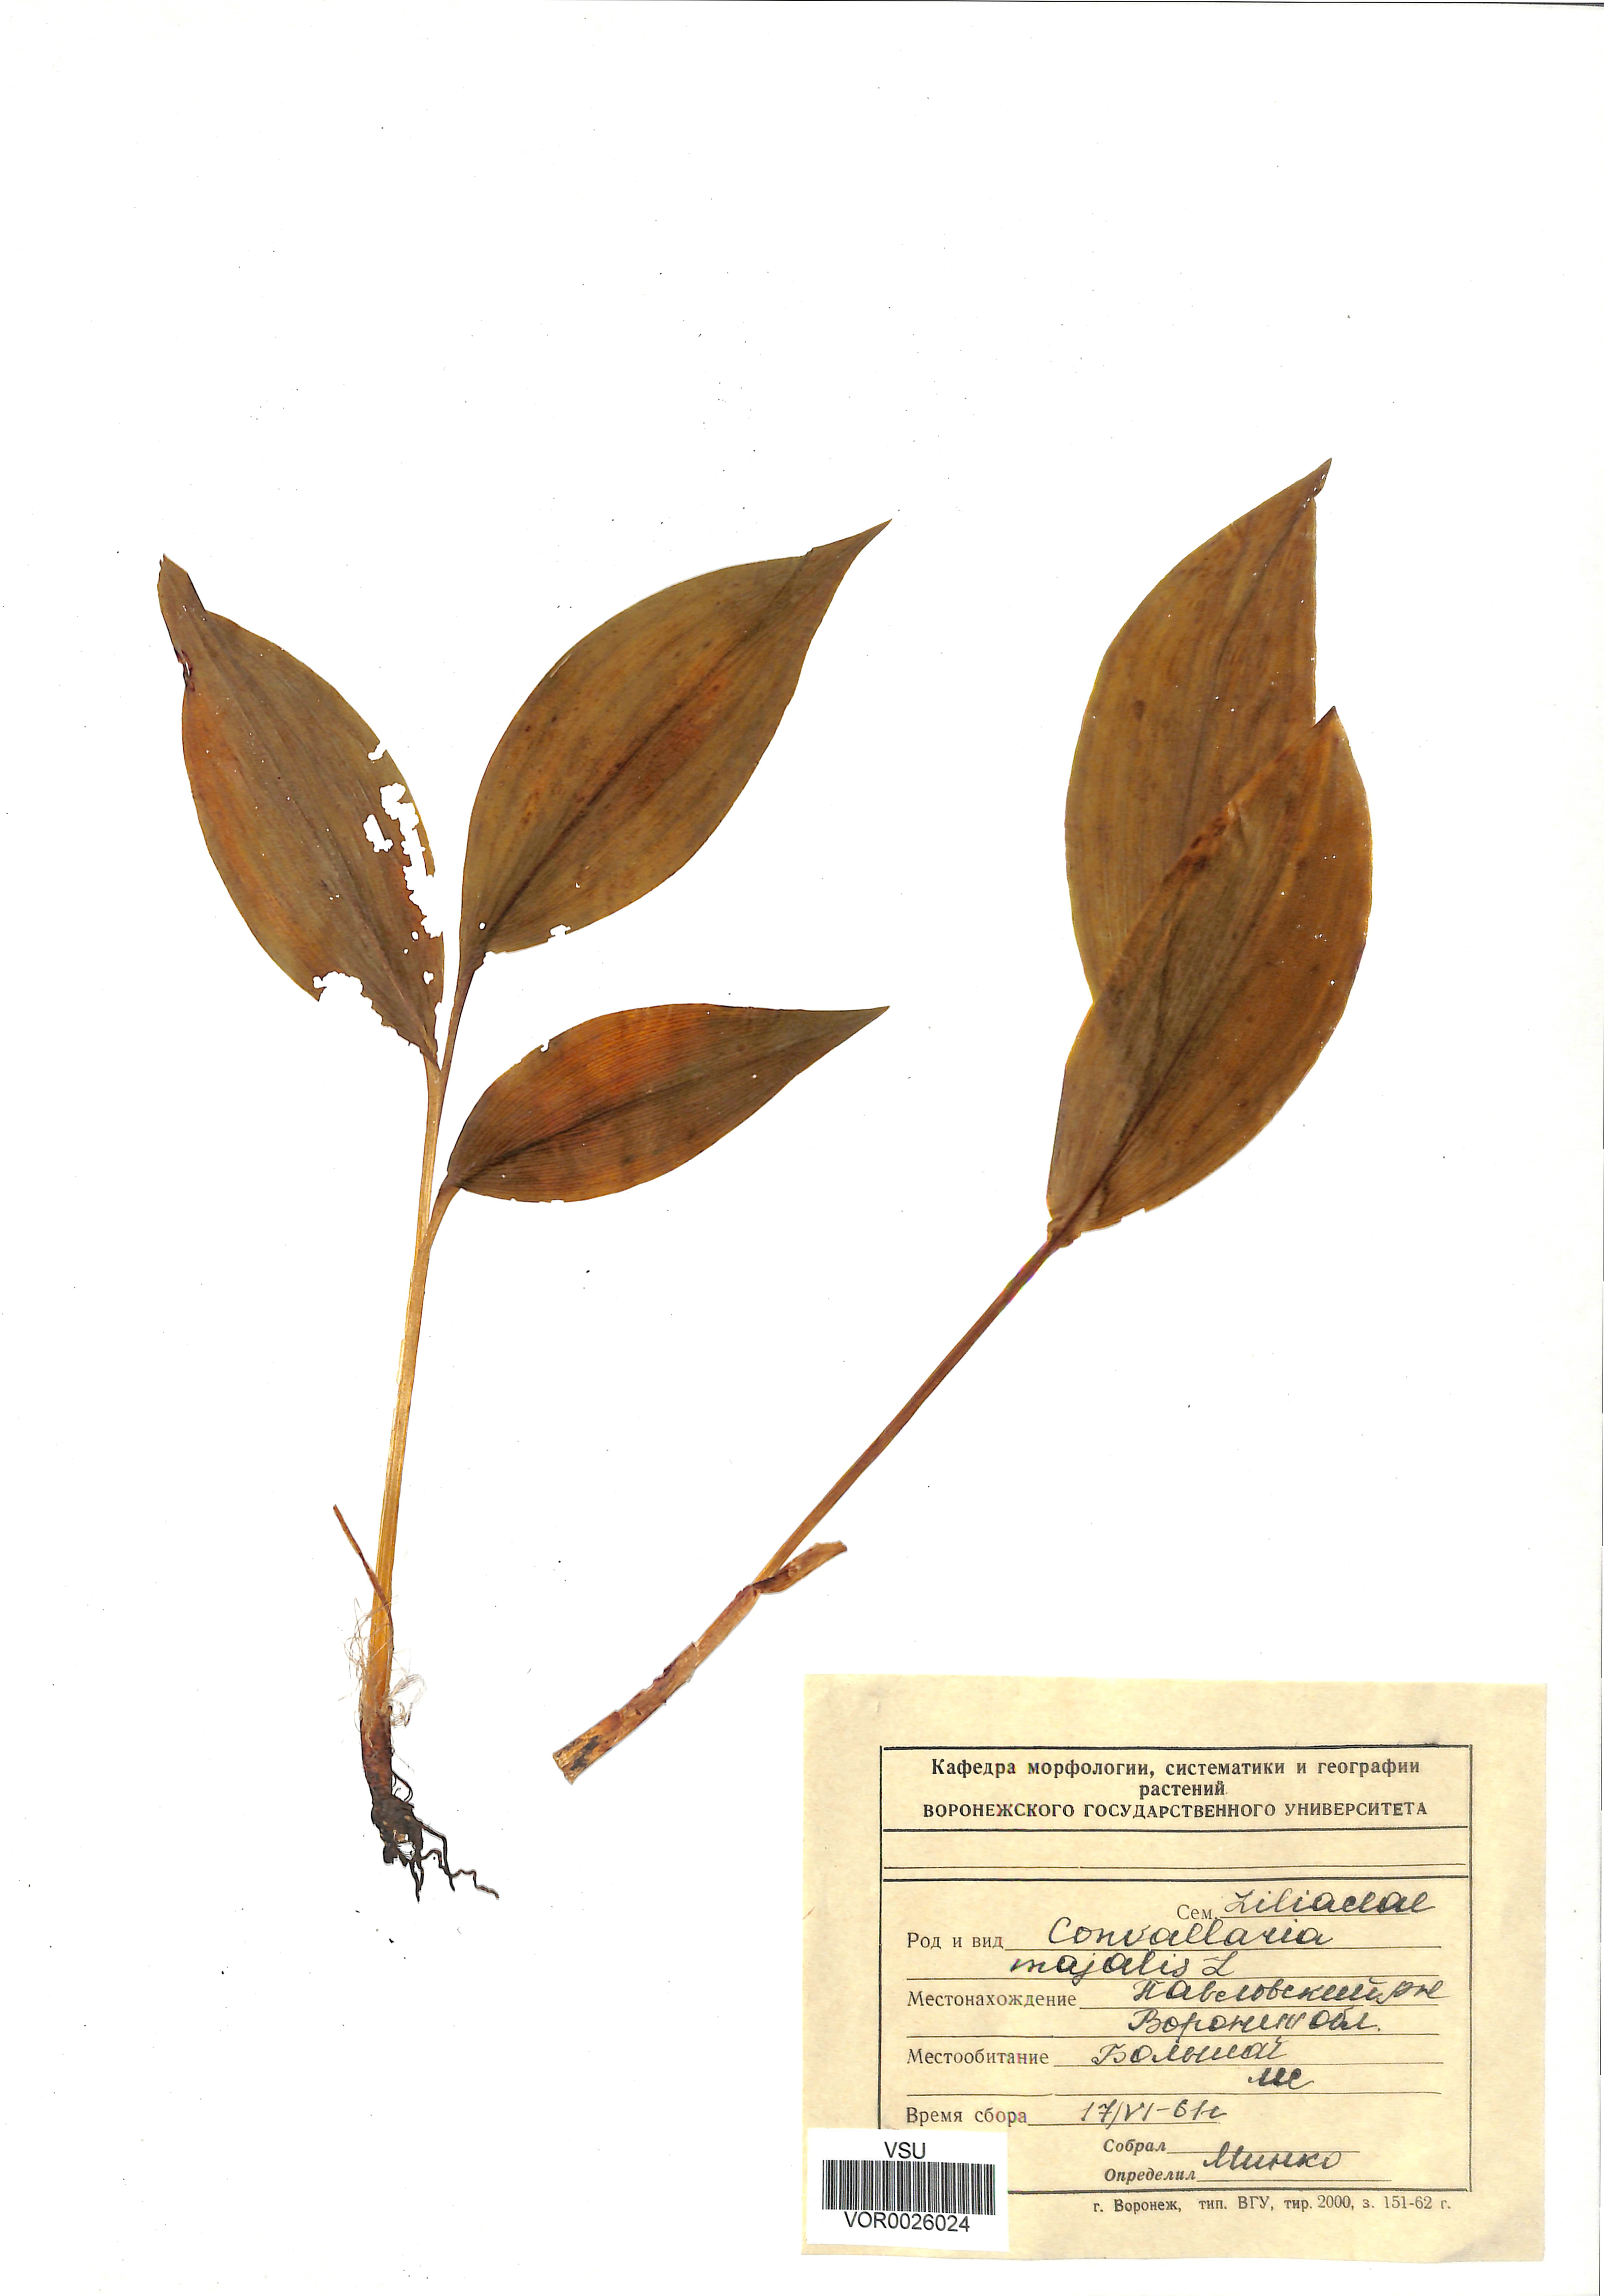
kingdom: Plantae
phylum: Tracheophyta
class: Liliopsida
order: Asparagales
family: Asparagaceae
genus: Convallaria
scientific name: Convallaria majalis
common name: Lily-of-the-valley
